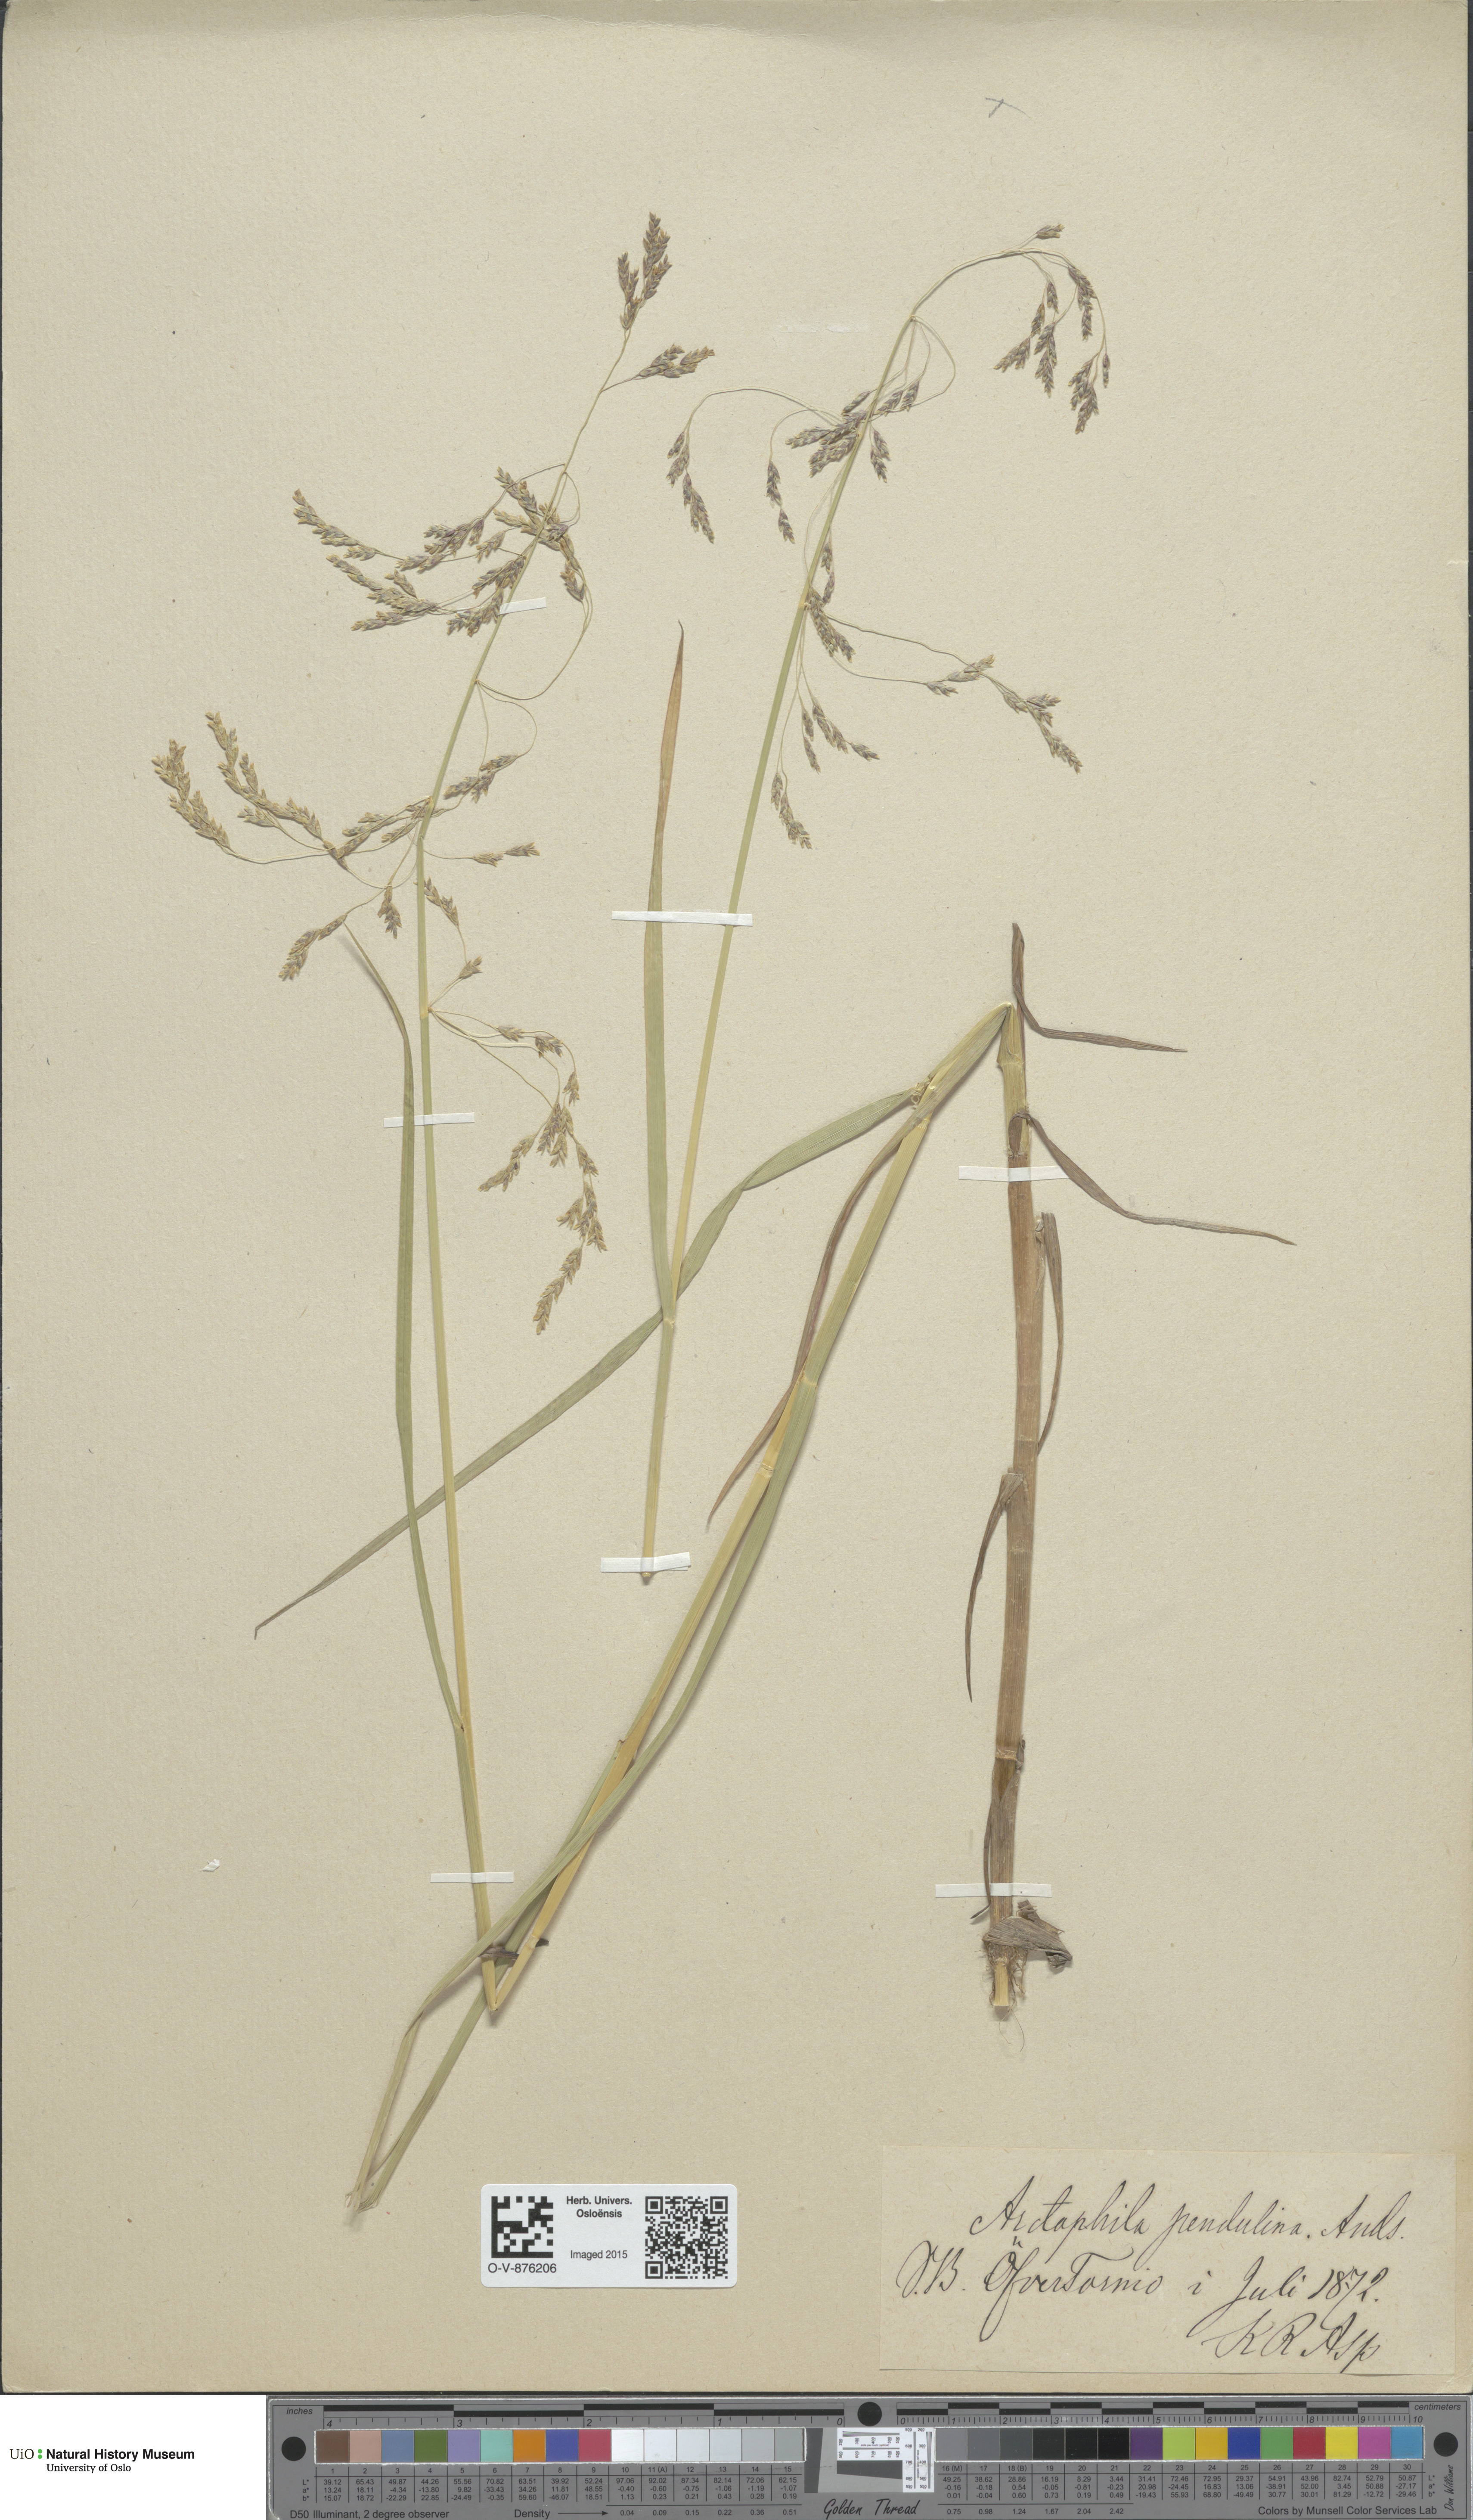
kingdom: Plantae
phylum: Tracheophyta
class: Liliopsida
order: Poales
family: Poaceae
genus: Dupontia
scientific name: Dupontia fulva
